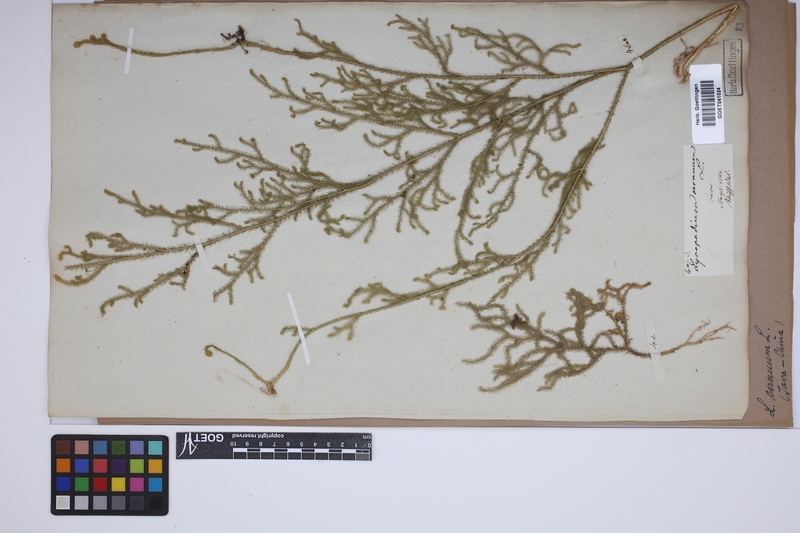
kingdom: Plantae
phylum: Tracheophyta
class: Lycopodiopsida
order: Lycopodiales
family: Lycopodiaceae
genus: Palhinhaea
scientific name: Palhinhaea cernua
